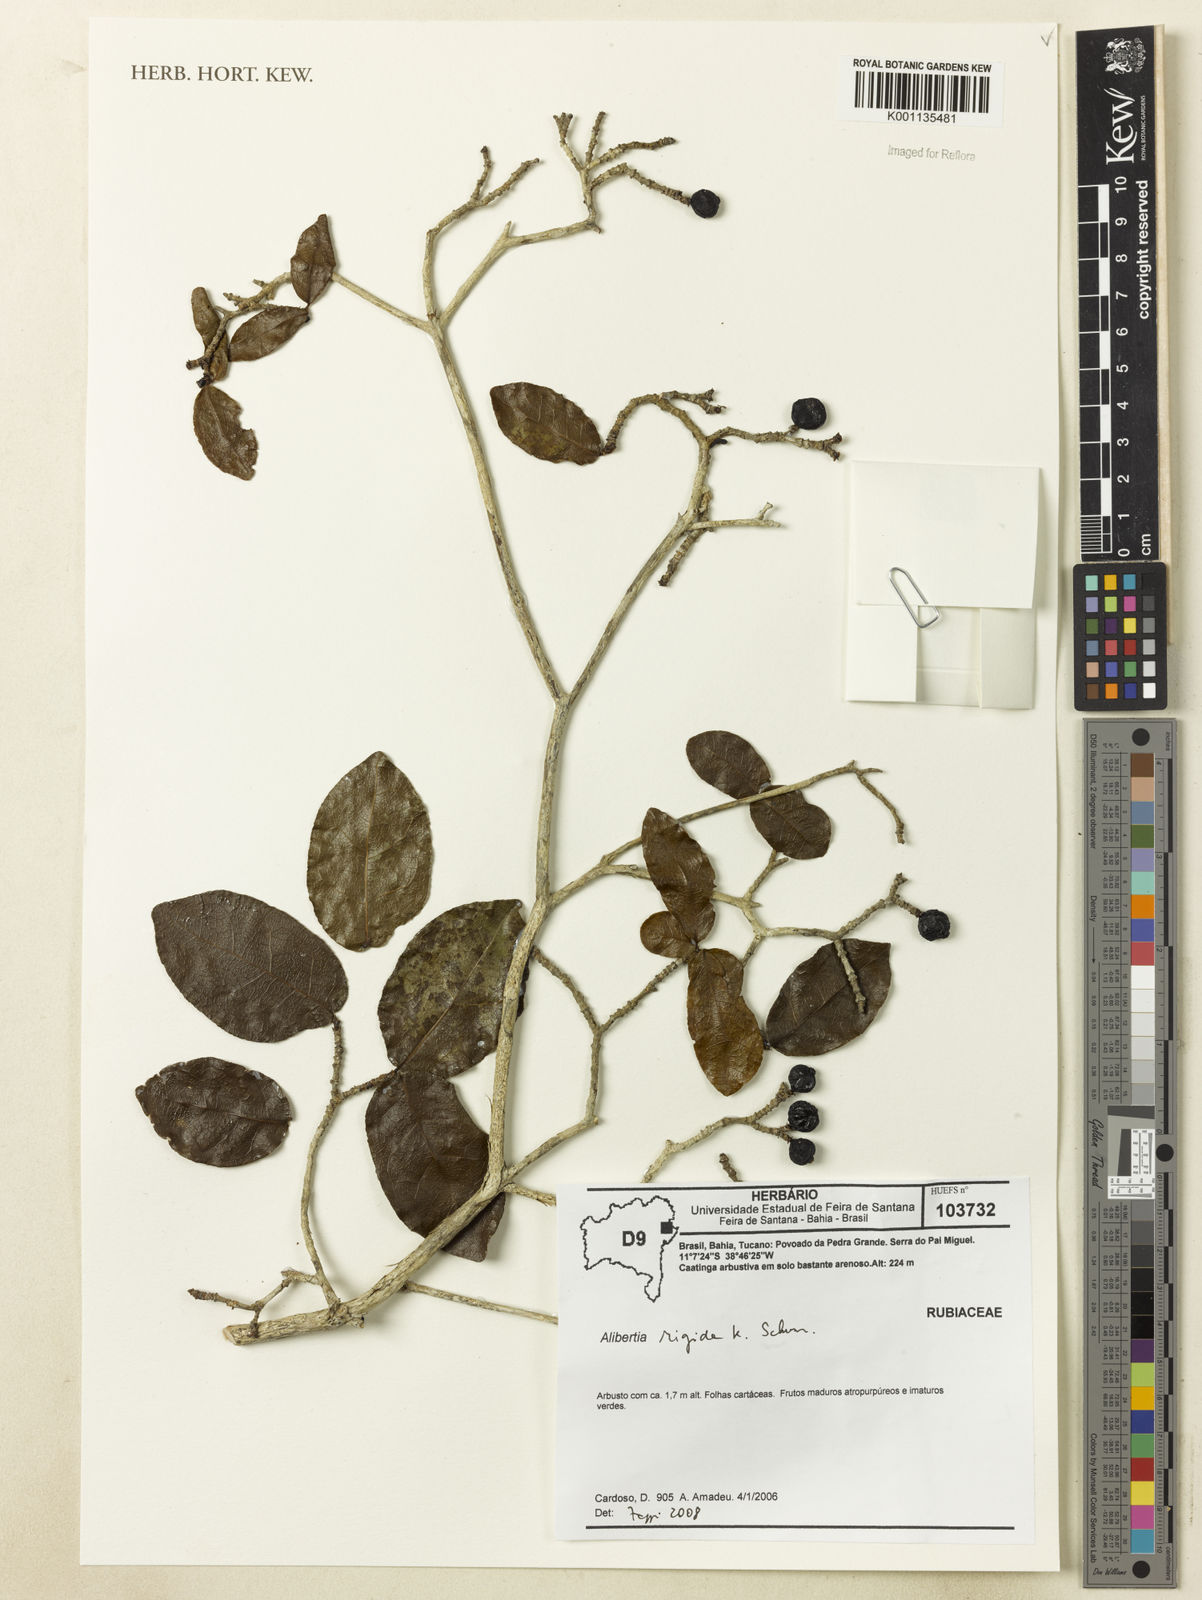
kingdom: Plantae
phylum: Tracheophyta
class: Magnoliopsida
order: Gentianales
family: Rubiaceae
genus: Cordiera
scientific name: Cordiera rigida
